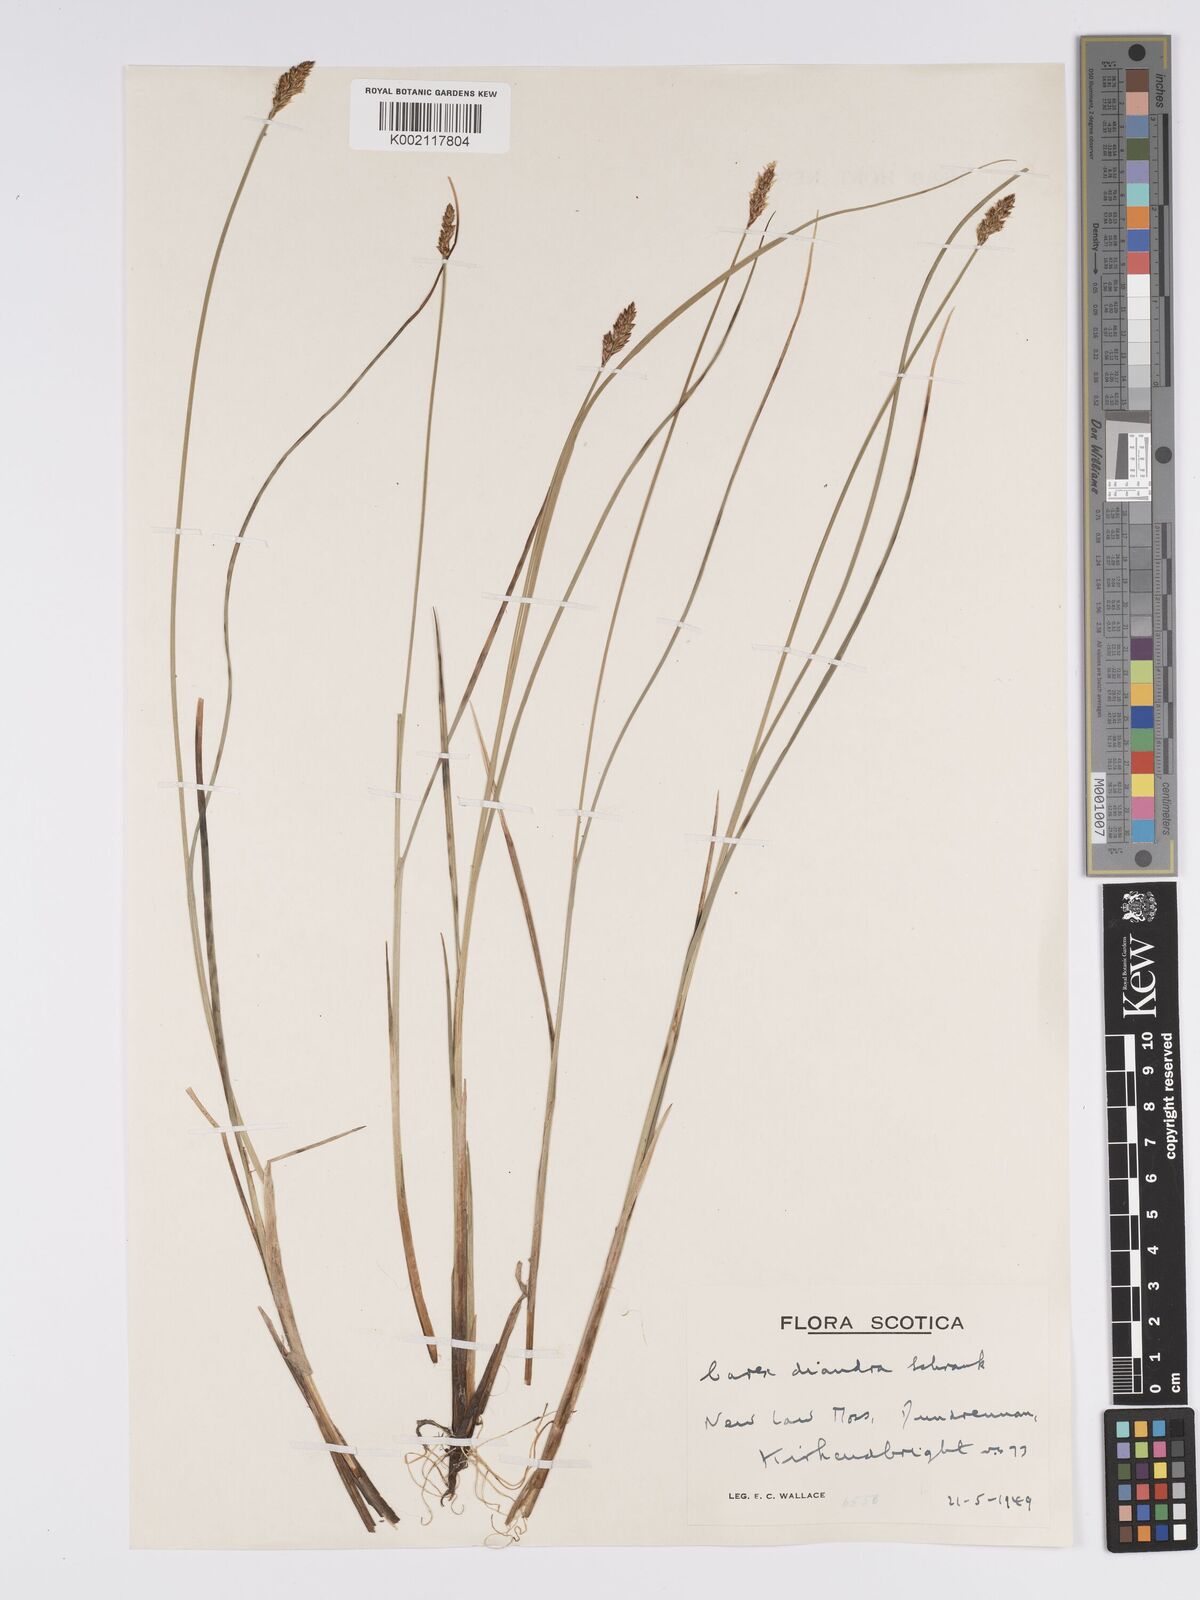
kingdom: Plantae
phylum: Tracheophyta
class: Liliopsida
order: Poales
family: Cyperaceae
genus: Carex
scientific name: Carex diandra
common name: Lesser tussock-sedge
